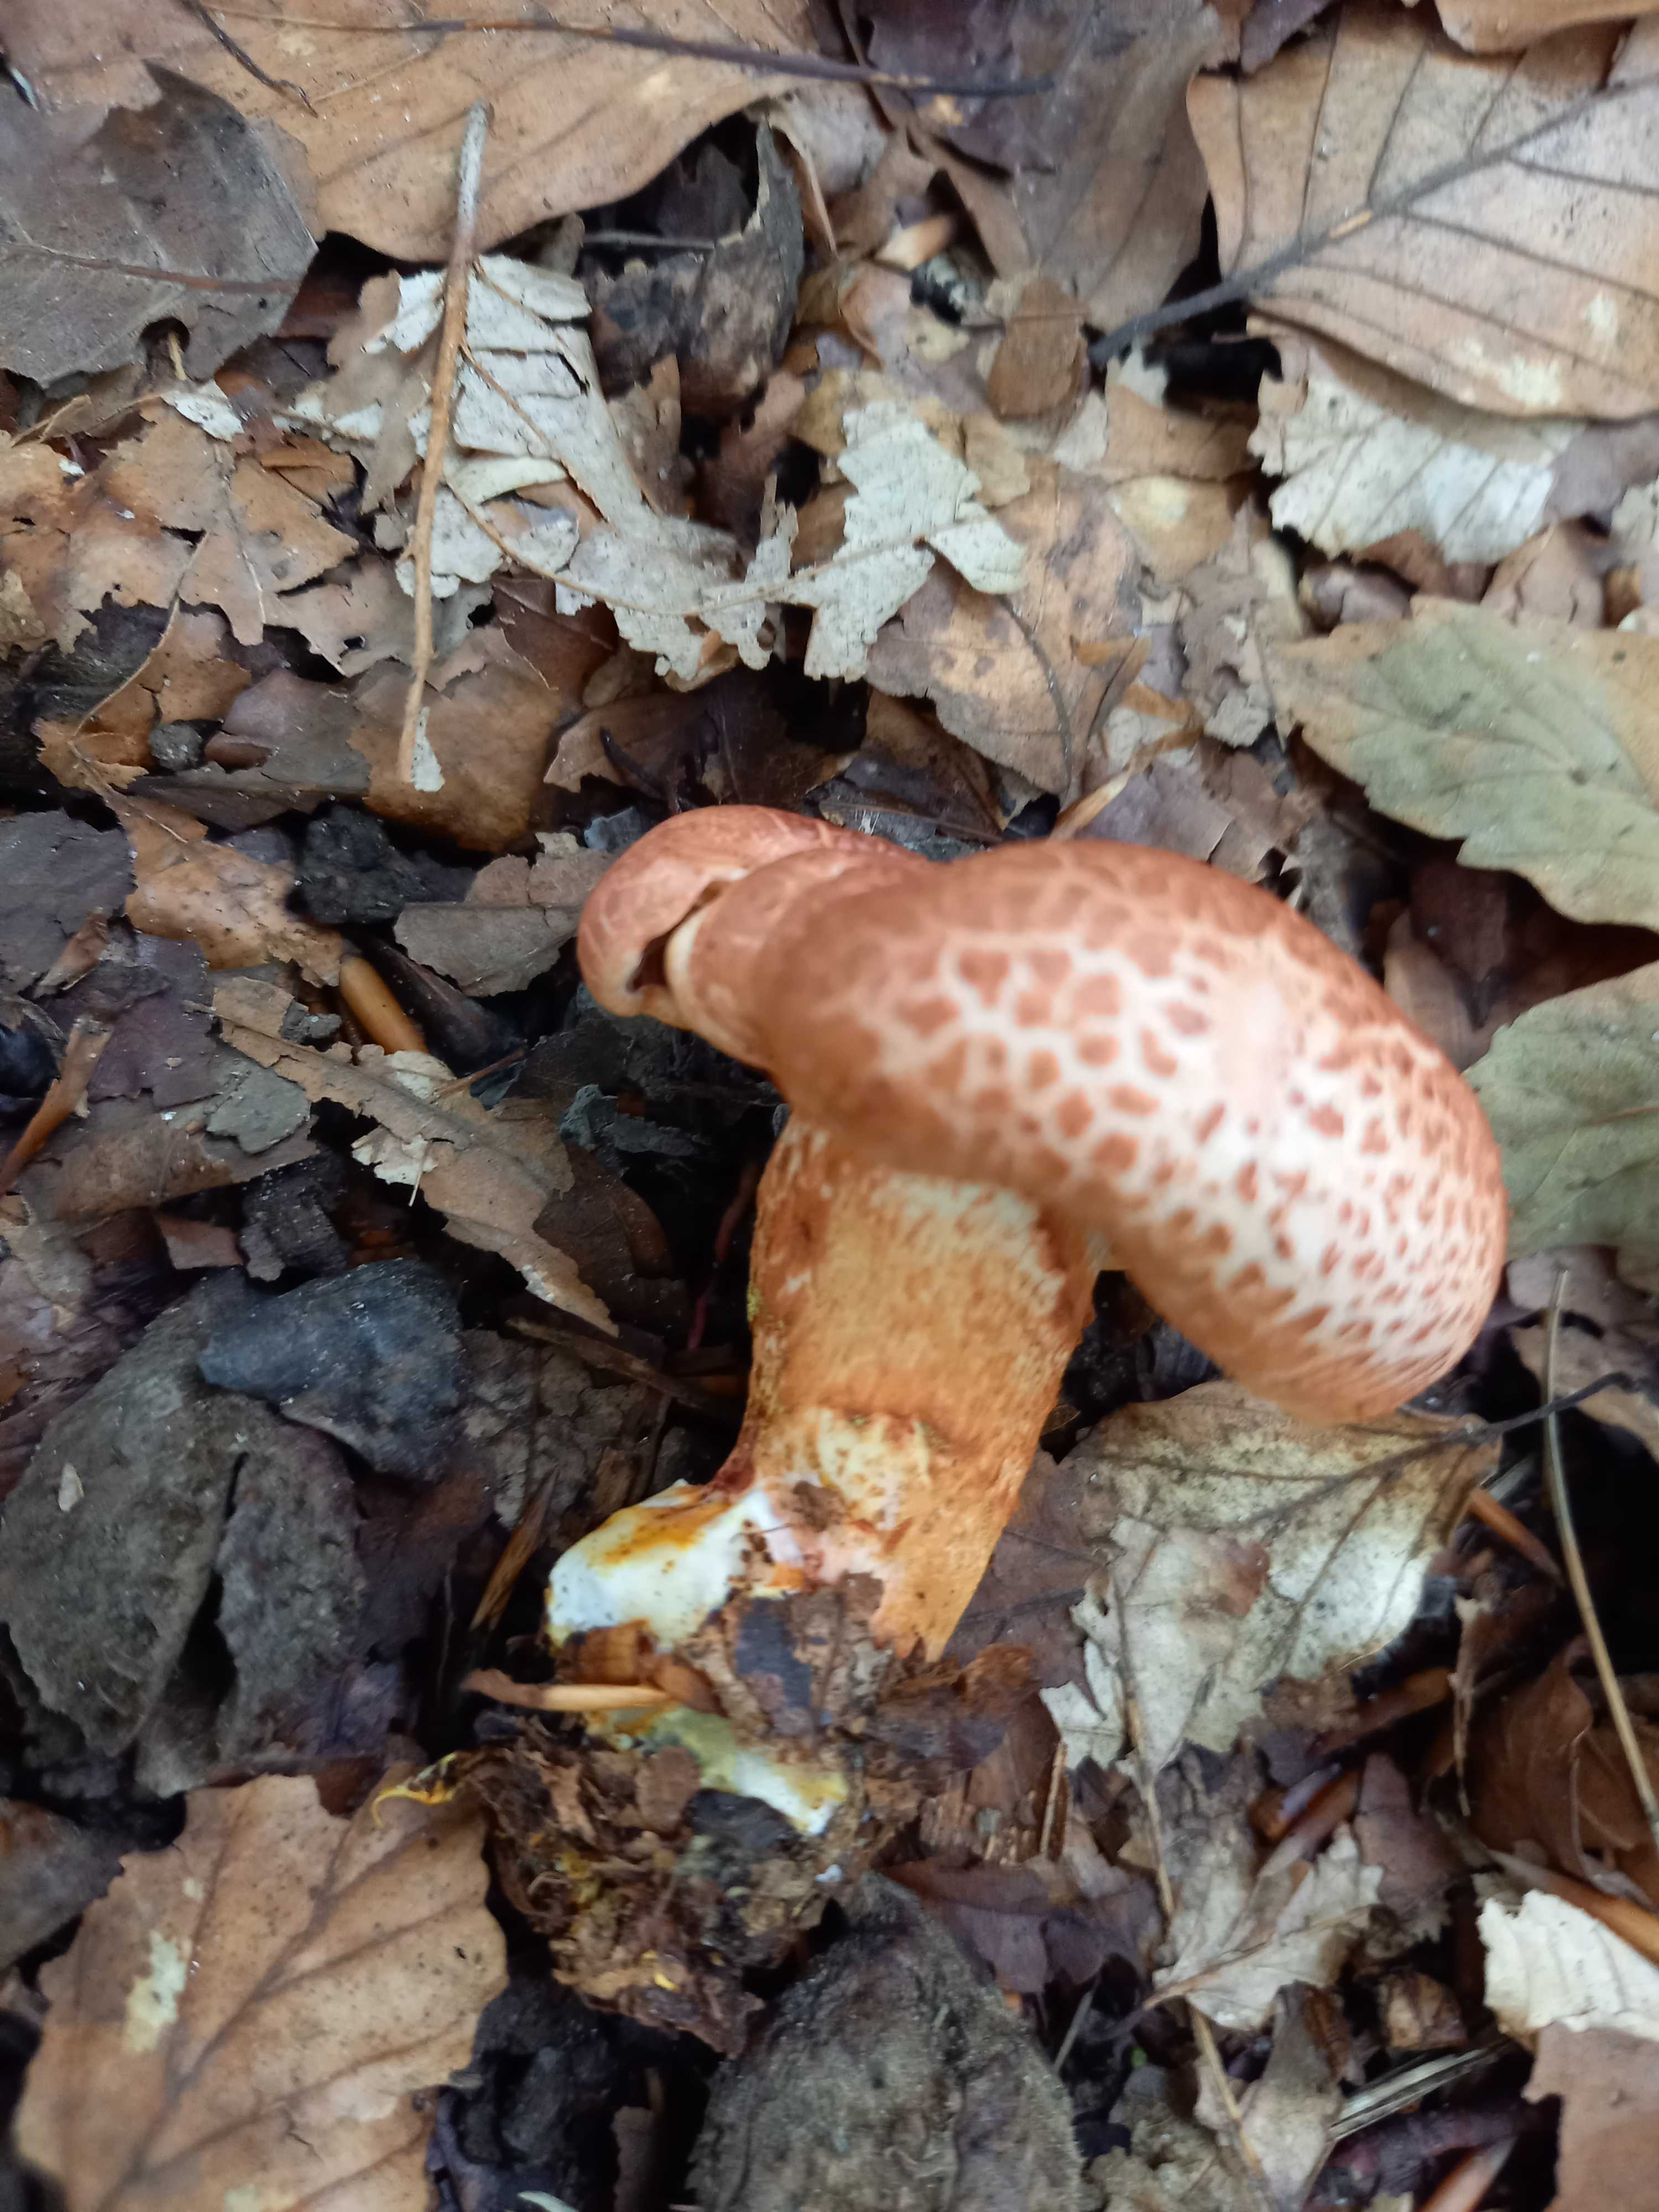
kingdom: Fungi
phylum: Basidiomycota
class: Agaricomycetes
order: Agaricales
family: Cortinariaceae
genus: Cortinarius
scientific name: Cortinarius bolaris
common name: cinnoberskællet slørhat
